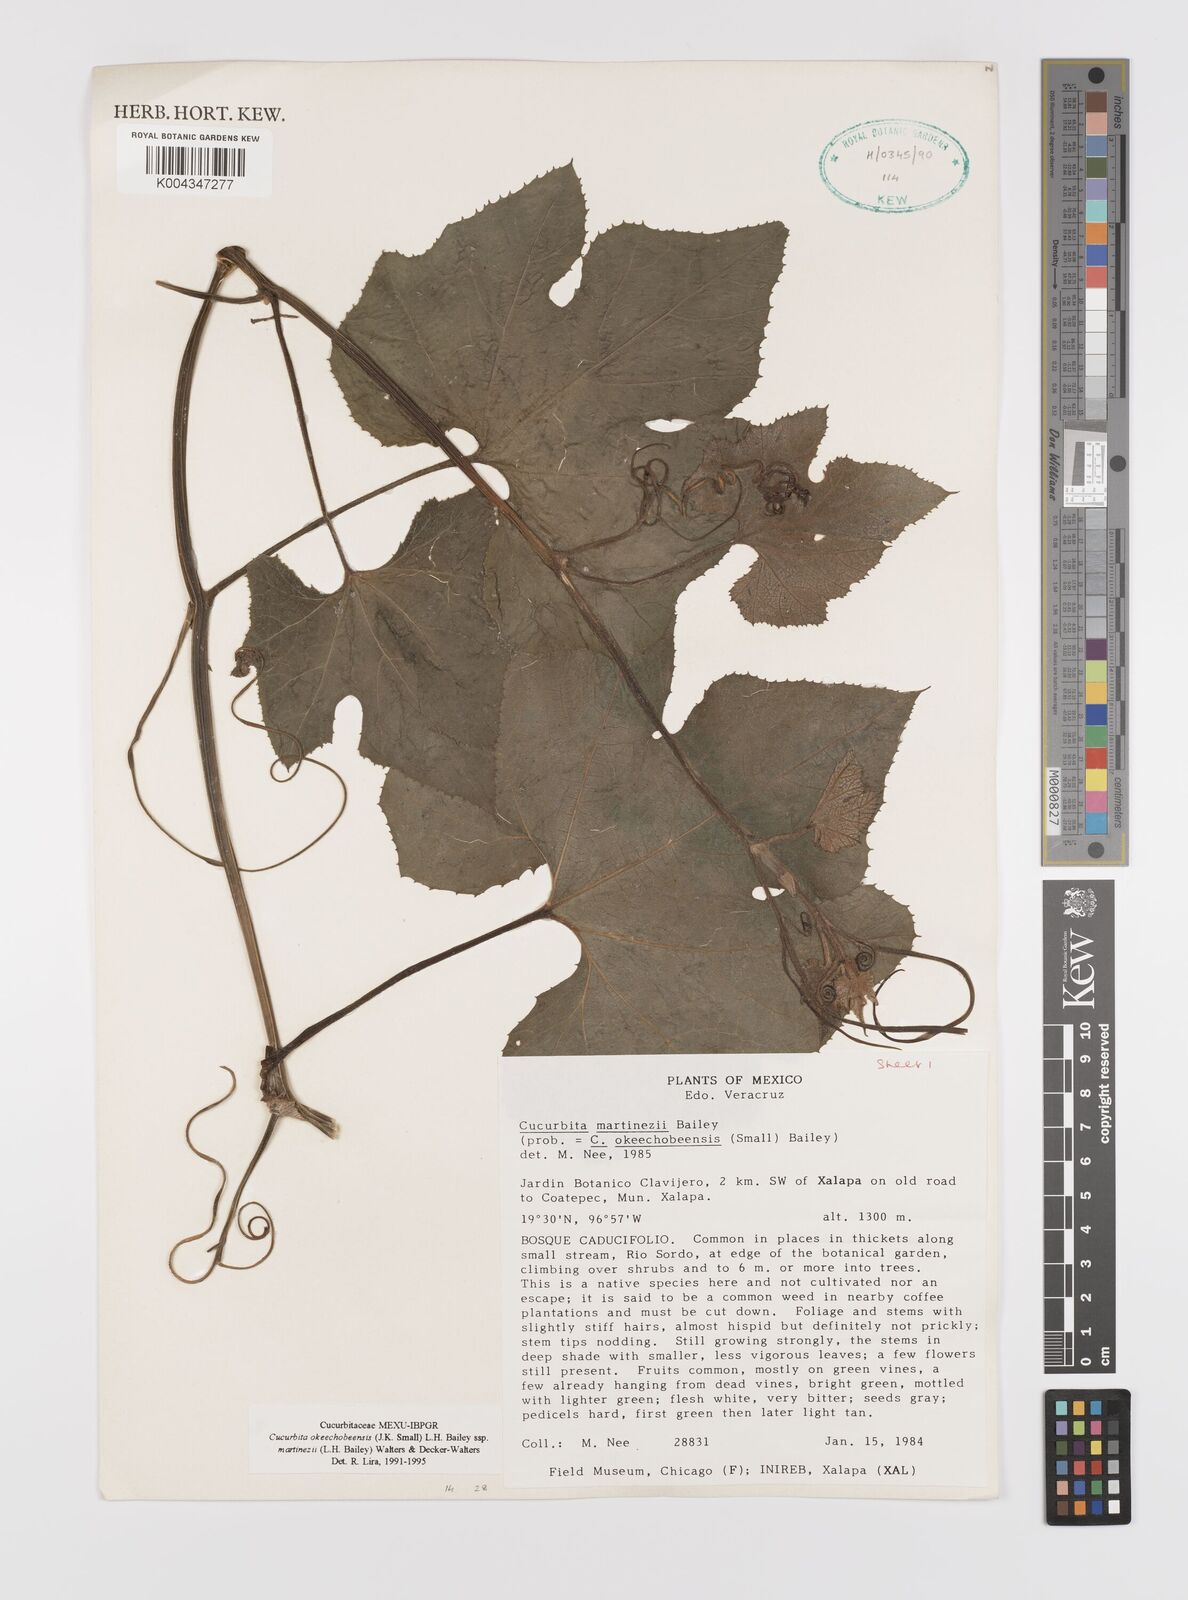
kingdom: Plantae
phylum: Tracheophyta
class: Magnoliopsida
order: Cucurbitales
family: Cucurbitaceae
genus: Cucurbita
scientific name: Cucurbita okeechobeensis
